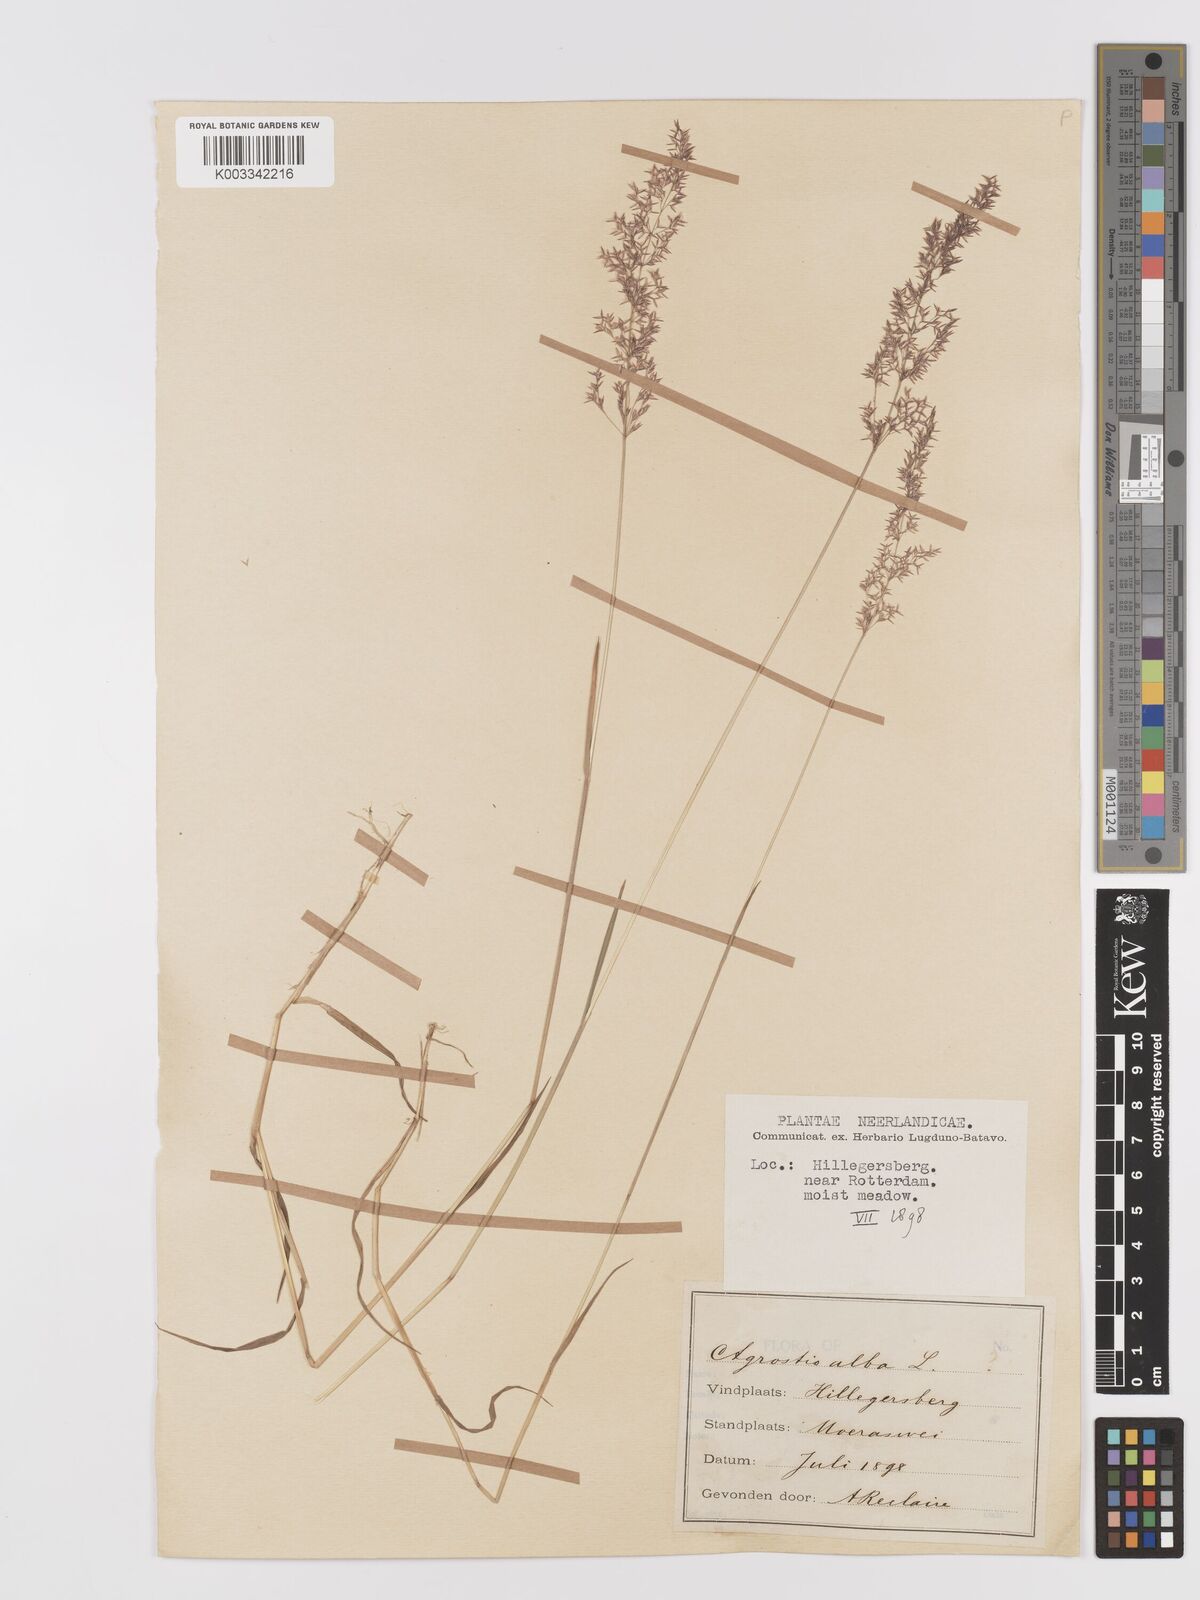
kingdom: Plantae
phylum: Tracheophyta
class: Liliopsida
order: Poales
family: Poaceae
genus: Agrostis
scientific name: Agrostis stolonifera
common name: Creeping bentgrass
